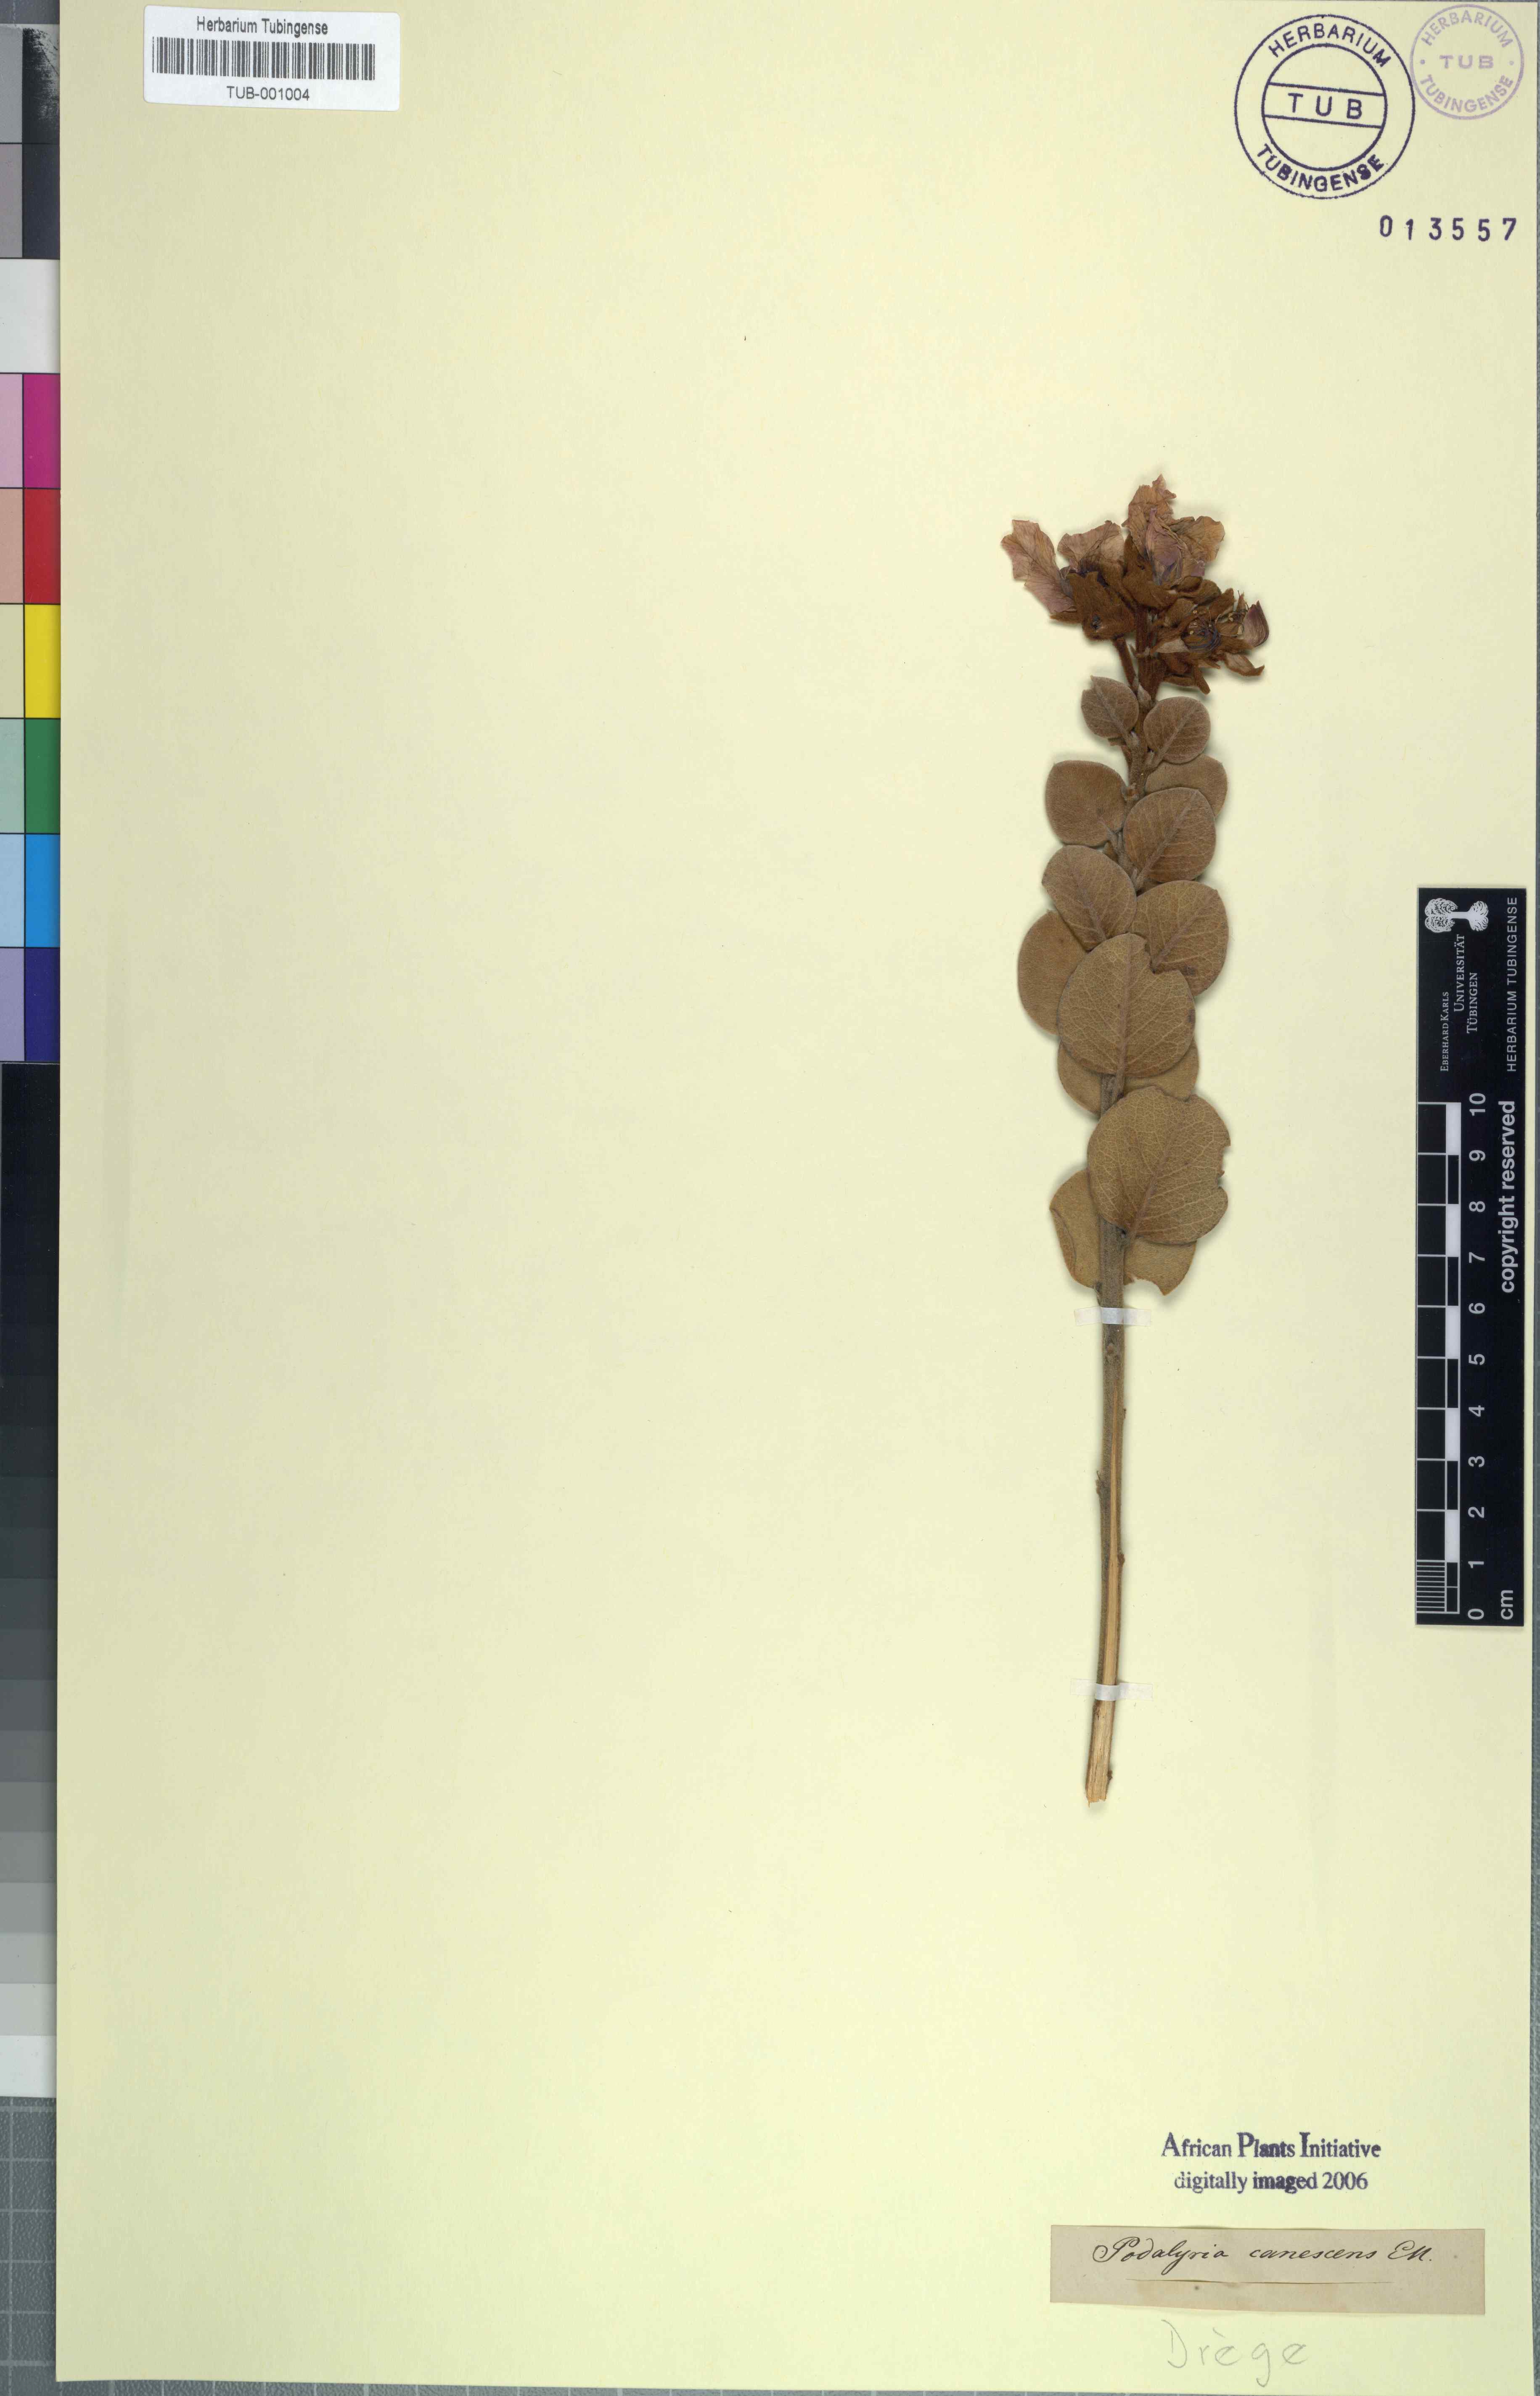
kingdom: Plantae
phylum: Tracheophyta
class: Magnoliopsida
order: Fabales
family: Fabaceae
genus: Podalyria
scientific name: Podalyria amoena
